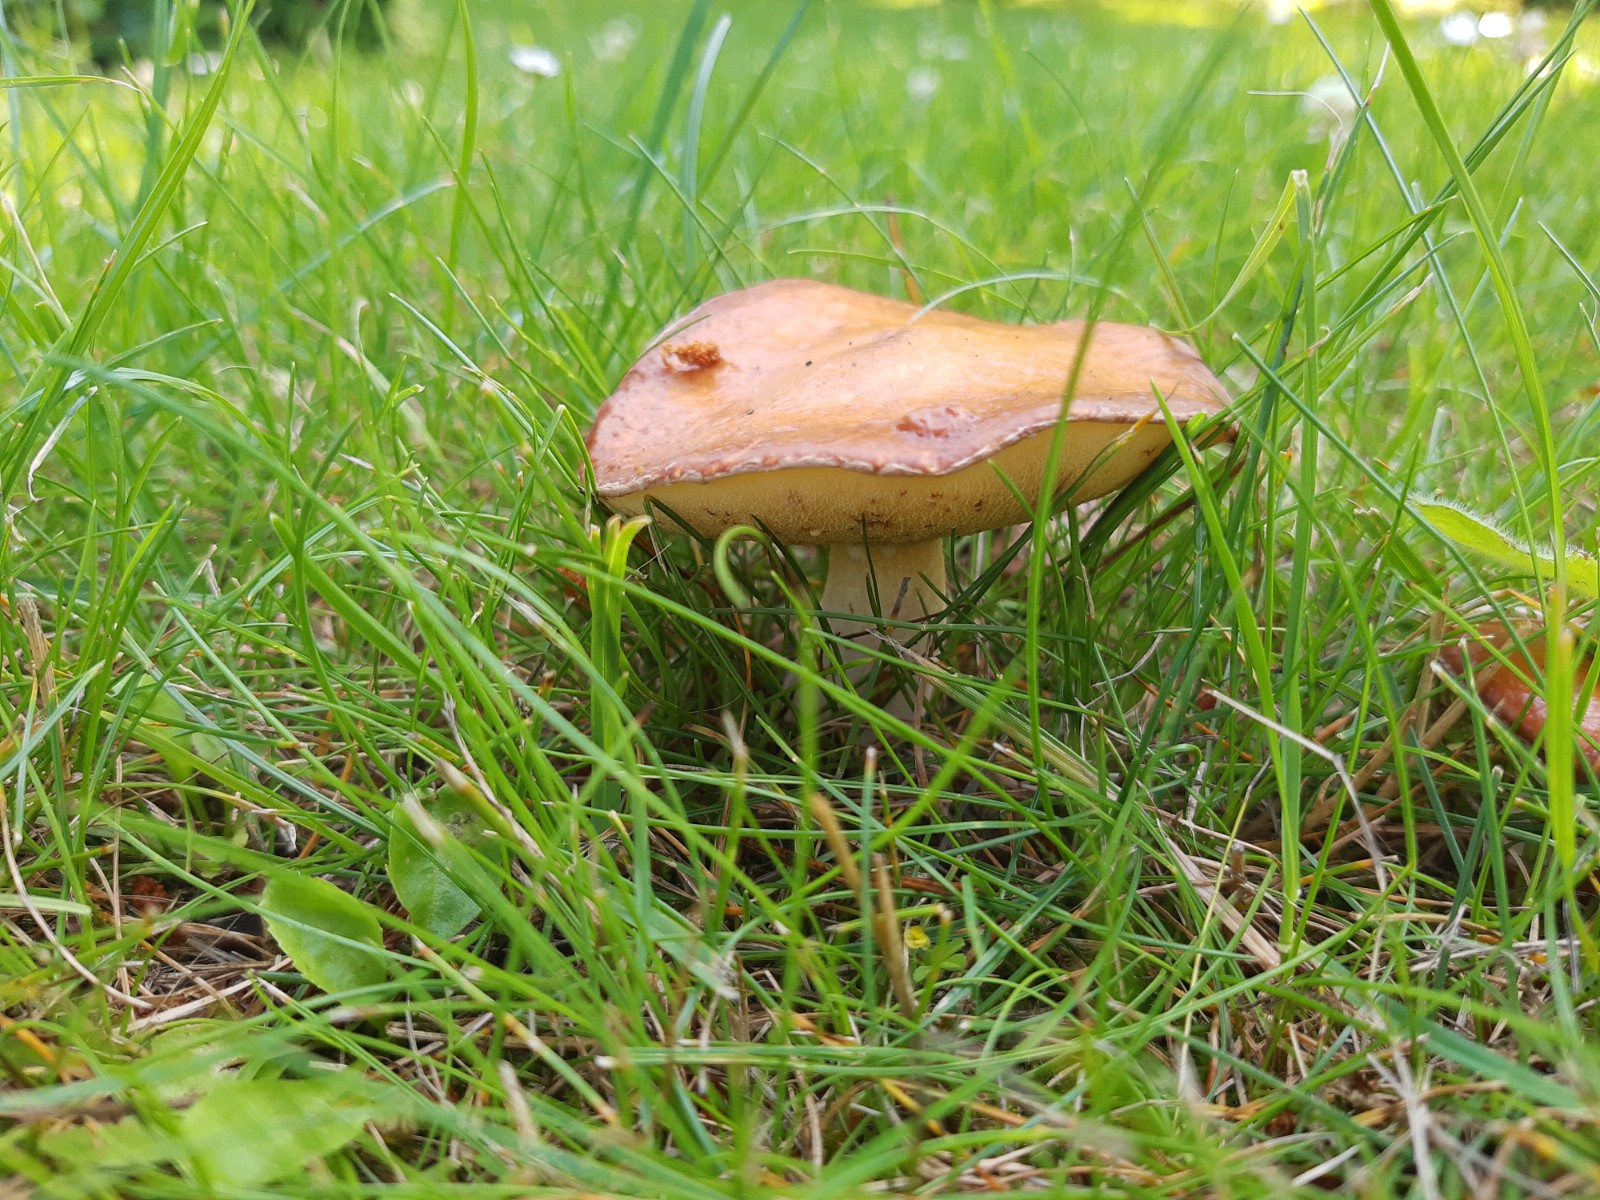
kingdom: Fungi
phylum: Basidiomycota
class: Agaricomycetes
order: Boletales
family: Suillaceae
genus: Suillus
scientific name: Suillus granulatus
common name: kornet slimrørhat
